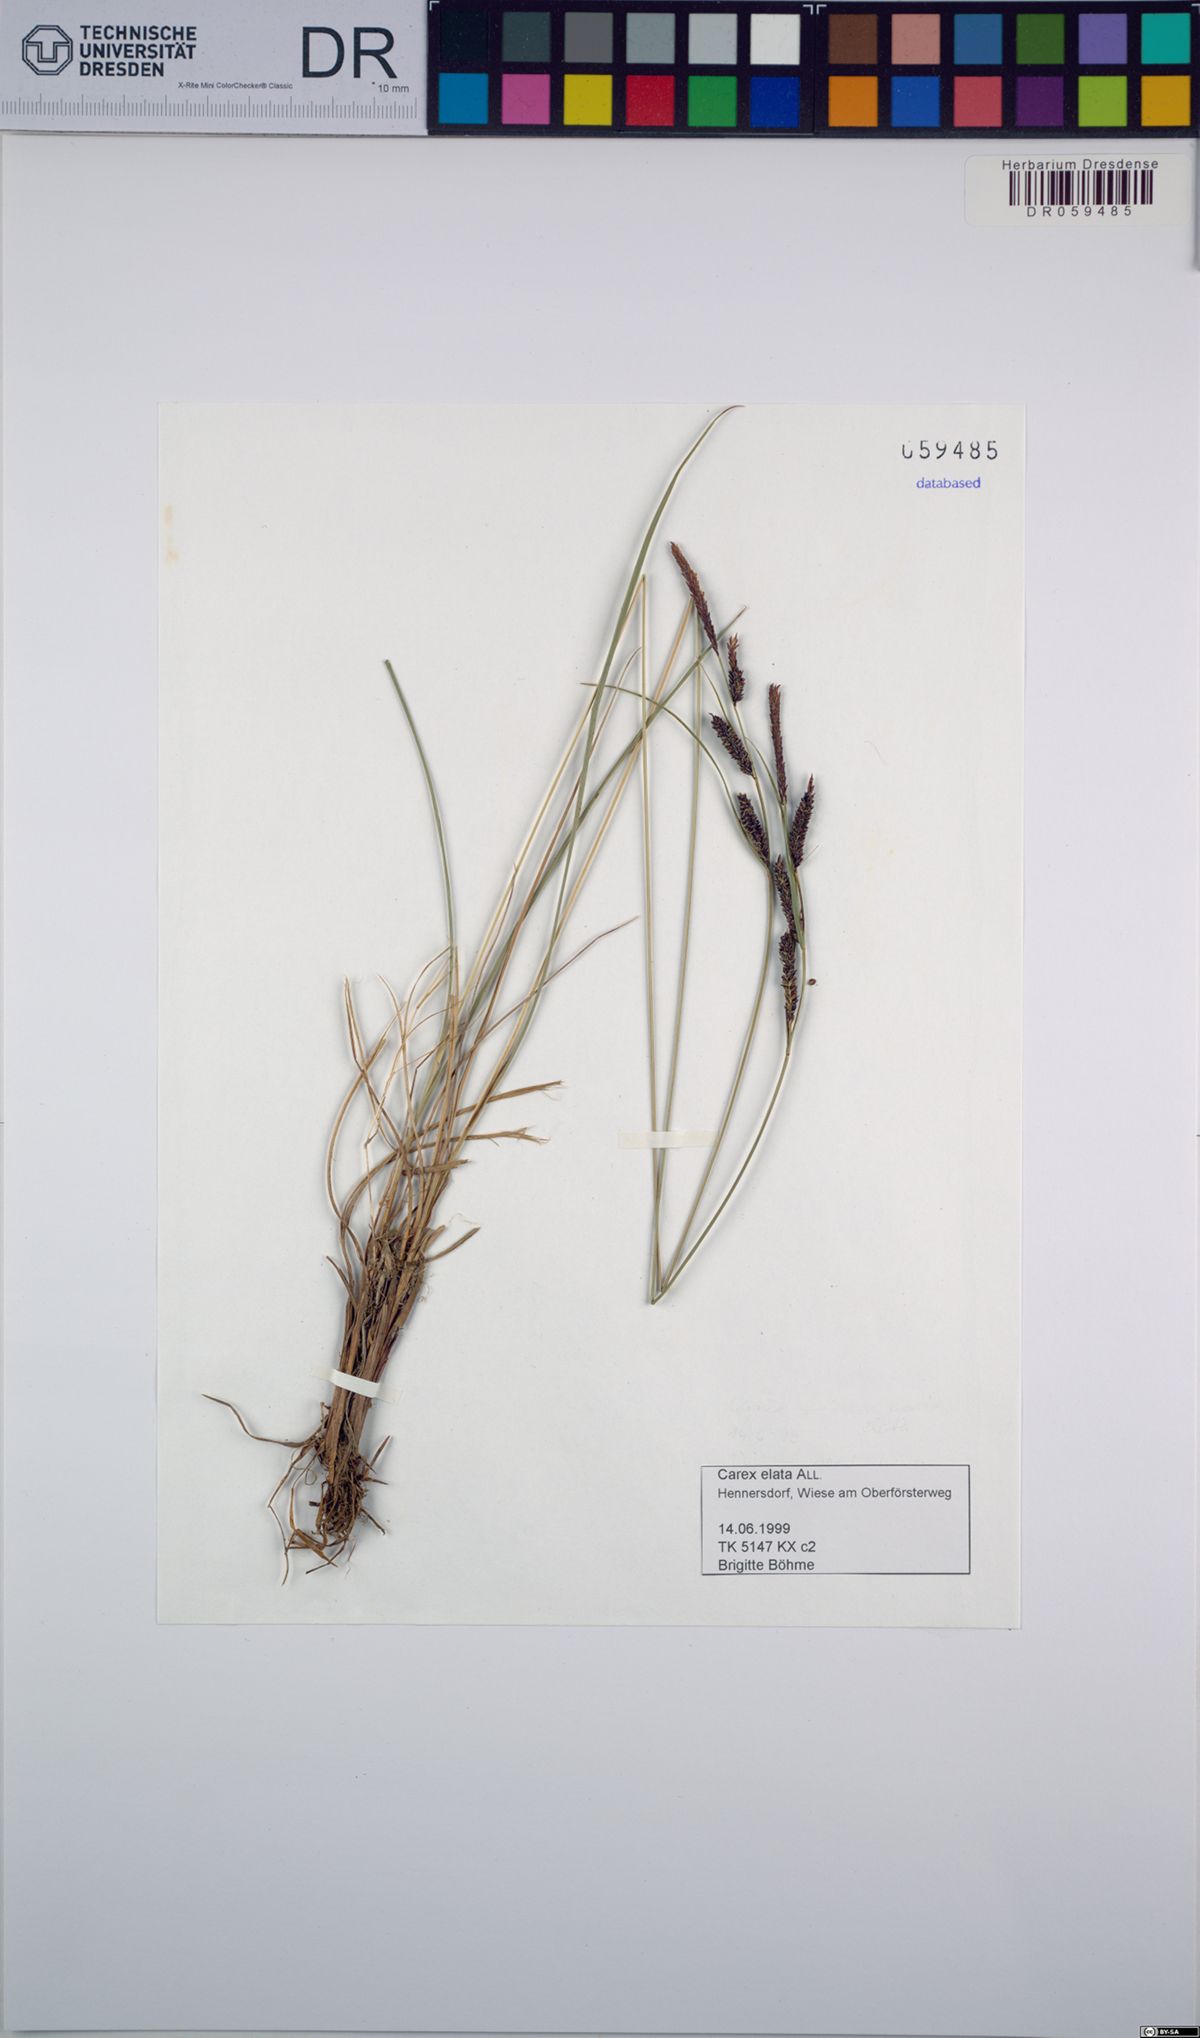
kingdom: Plantae
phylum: Tracheophyta
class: Liliopsida
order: Poales
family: Cyperaceae
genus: Carex
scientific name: Carex elata
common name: Tufted sedge
